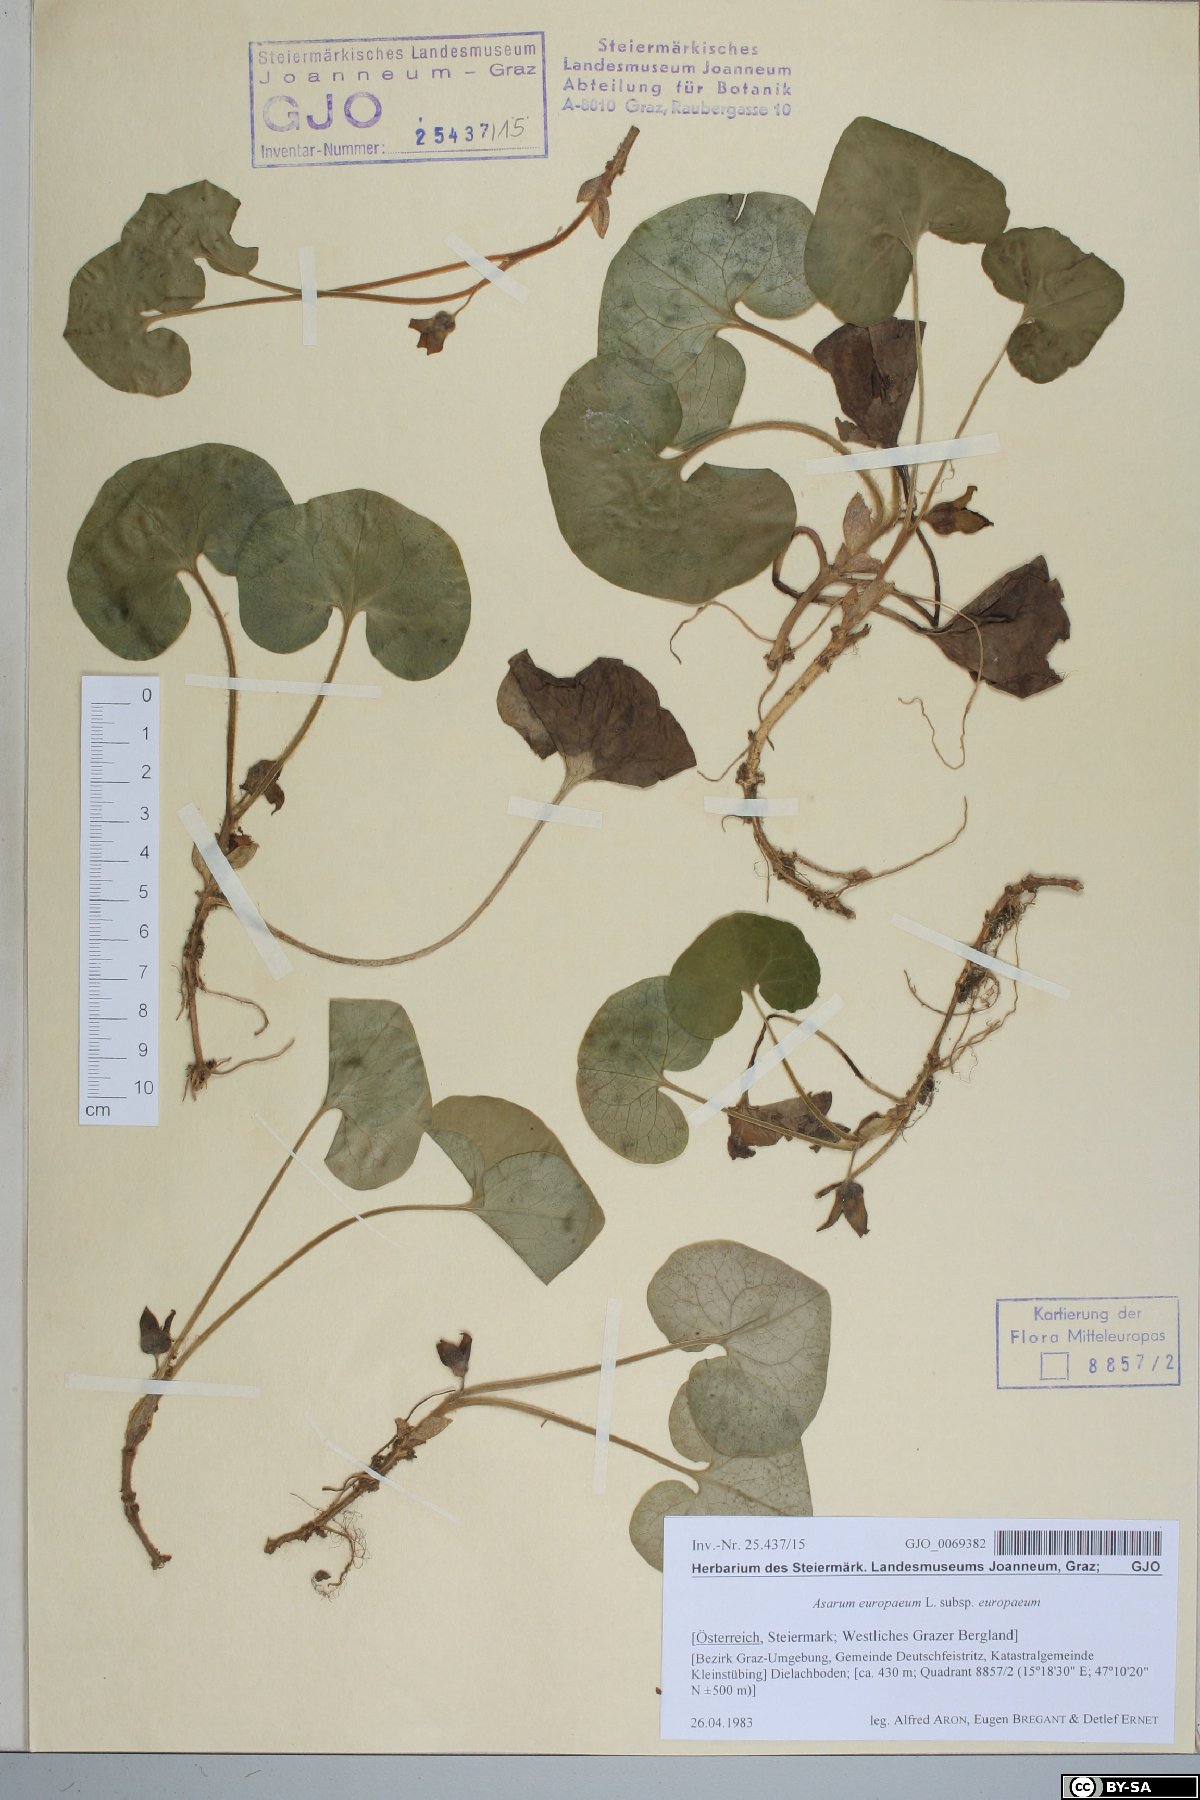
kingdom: Plantae
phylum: Tracheophyta
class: Magnoliopsida
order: Piperales
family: Aristolochiaceae
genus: Asarum
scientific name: Asarum europaeum
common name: Asarabacca
